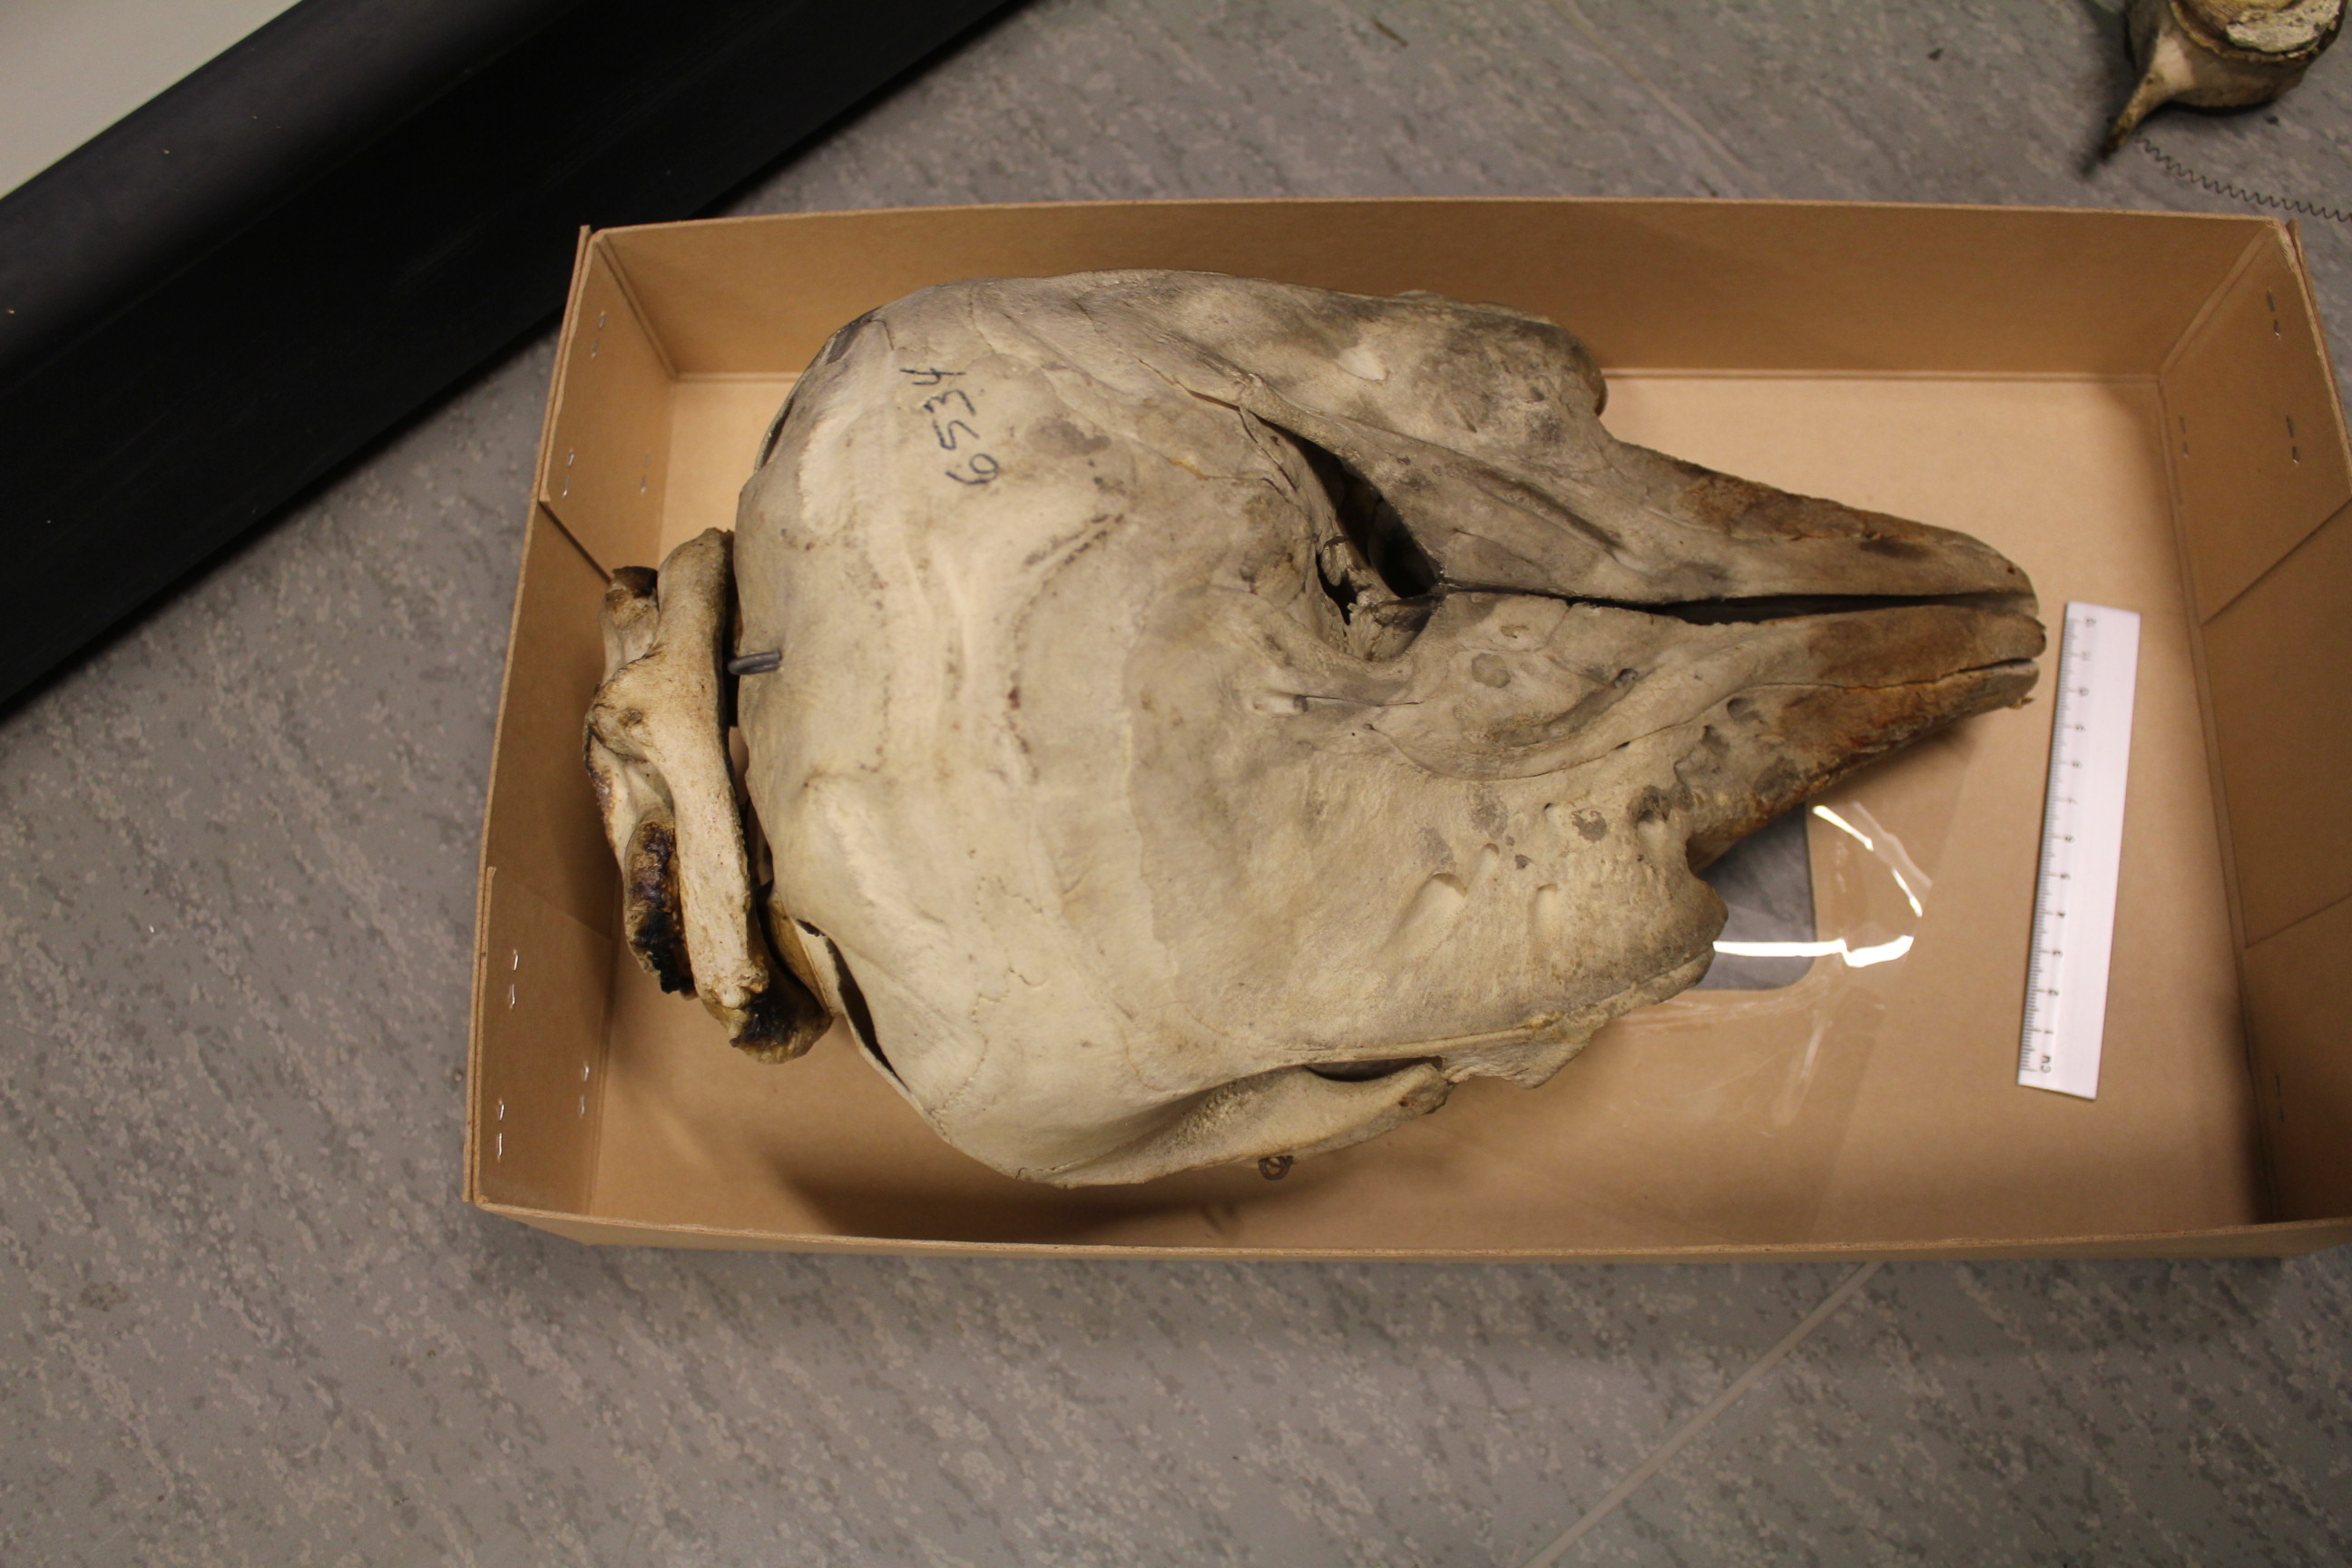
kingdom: Animalia
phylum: Chordata
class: Mammalia
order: Cetacea
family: Monodontidae
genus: Delphinapterus
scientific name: Delphinapterus leucas
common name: Beluga
